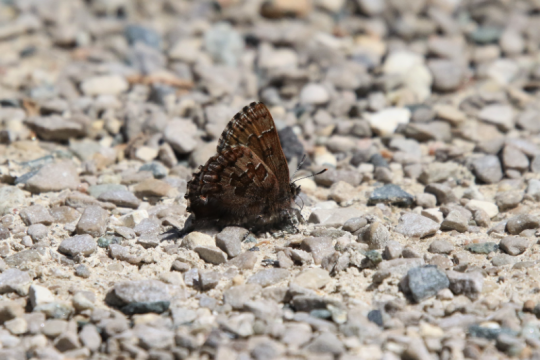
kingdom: Animalia
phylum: Arthropoda
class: Insecta
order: Lepidoptera
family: Lycaenidae
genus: Incisalia
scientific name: Incisalia niphon
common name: Eastern Pine Elfin
